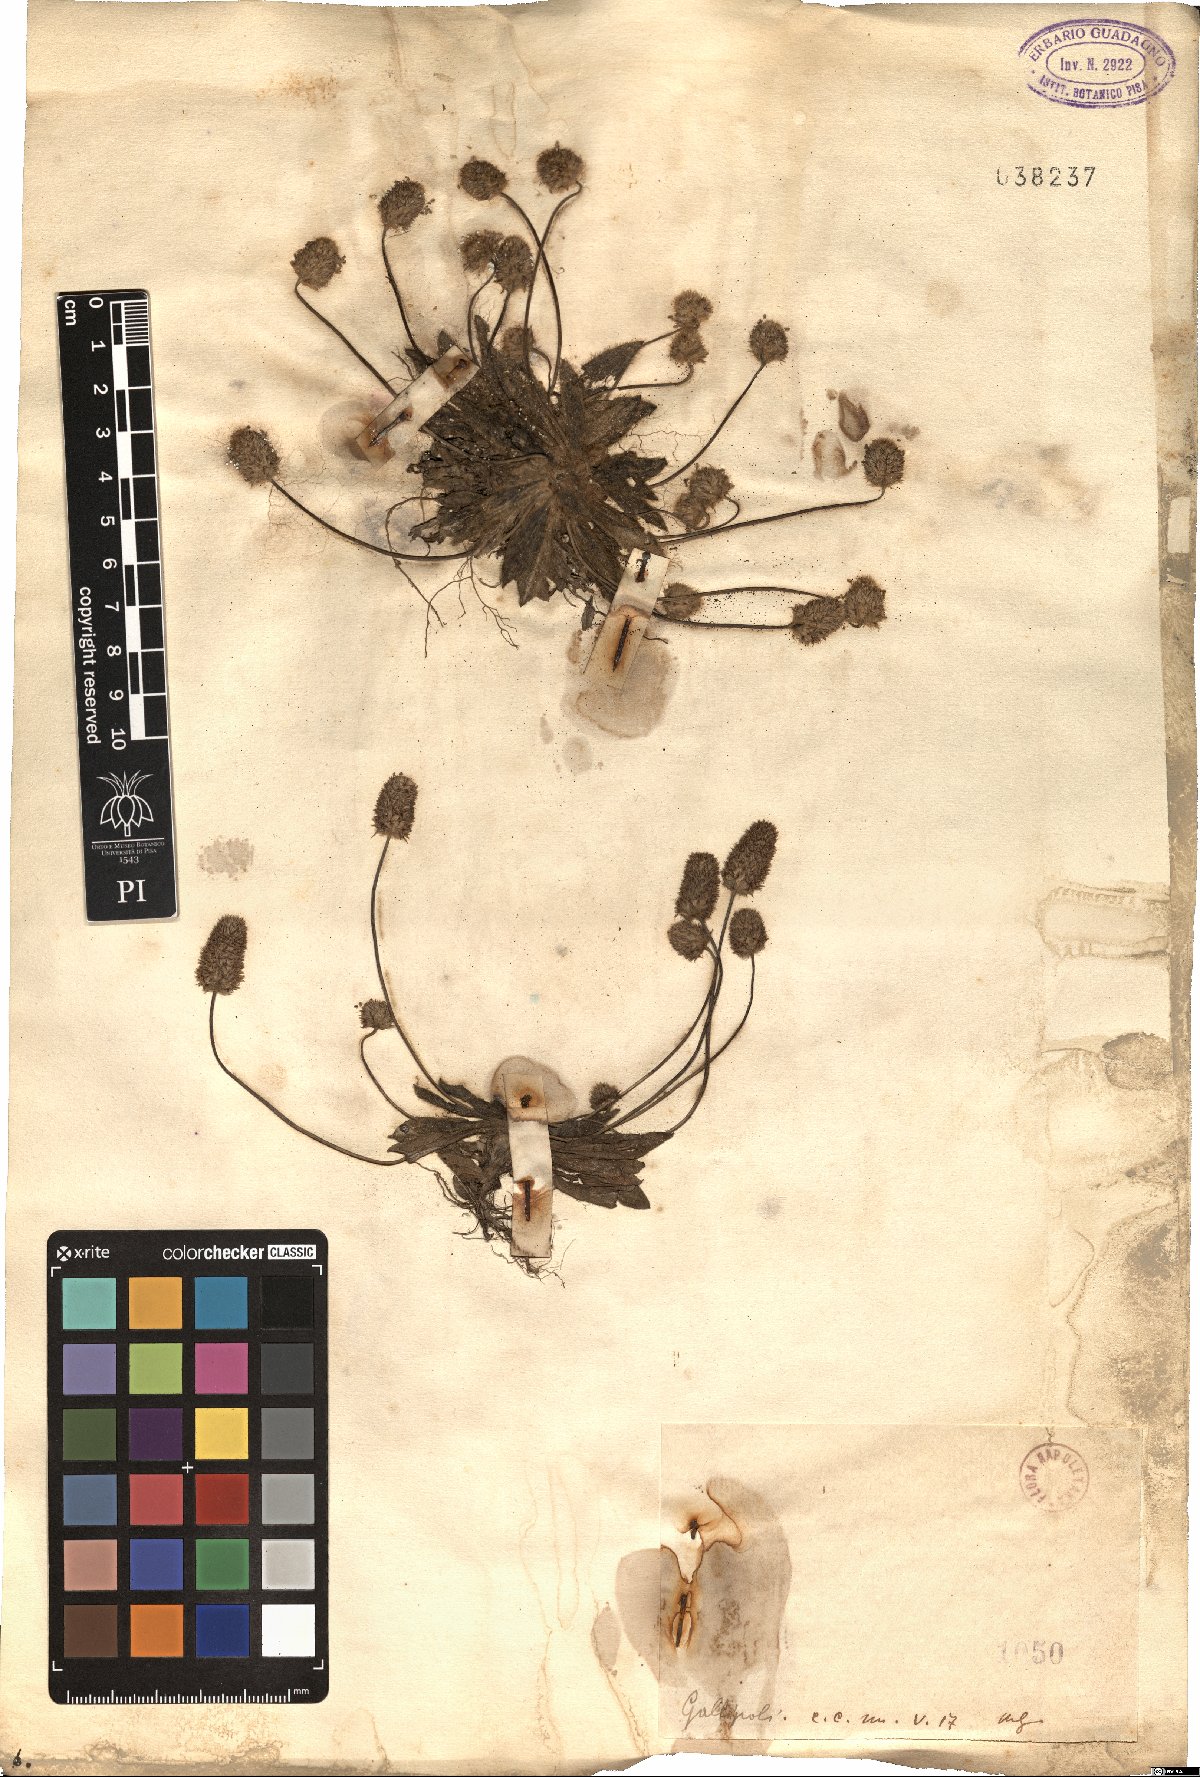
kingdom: Plantae
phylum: Tracheophyta
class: Magnoliopsida
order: Lamiales
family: Plantaginaceae
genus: Plantago
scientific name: Plantago
